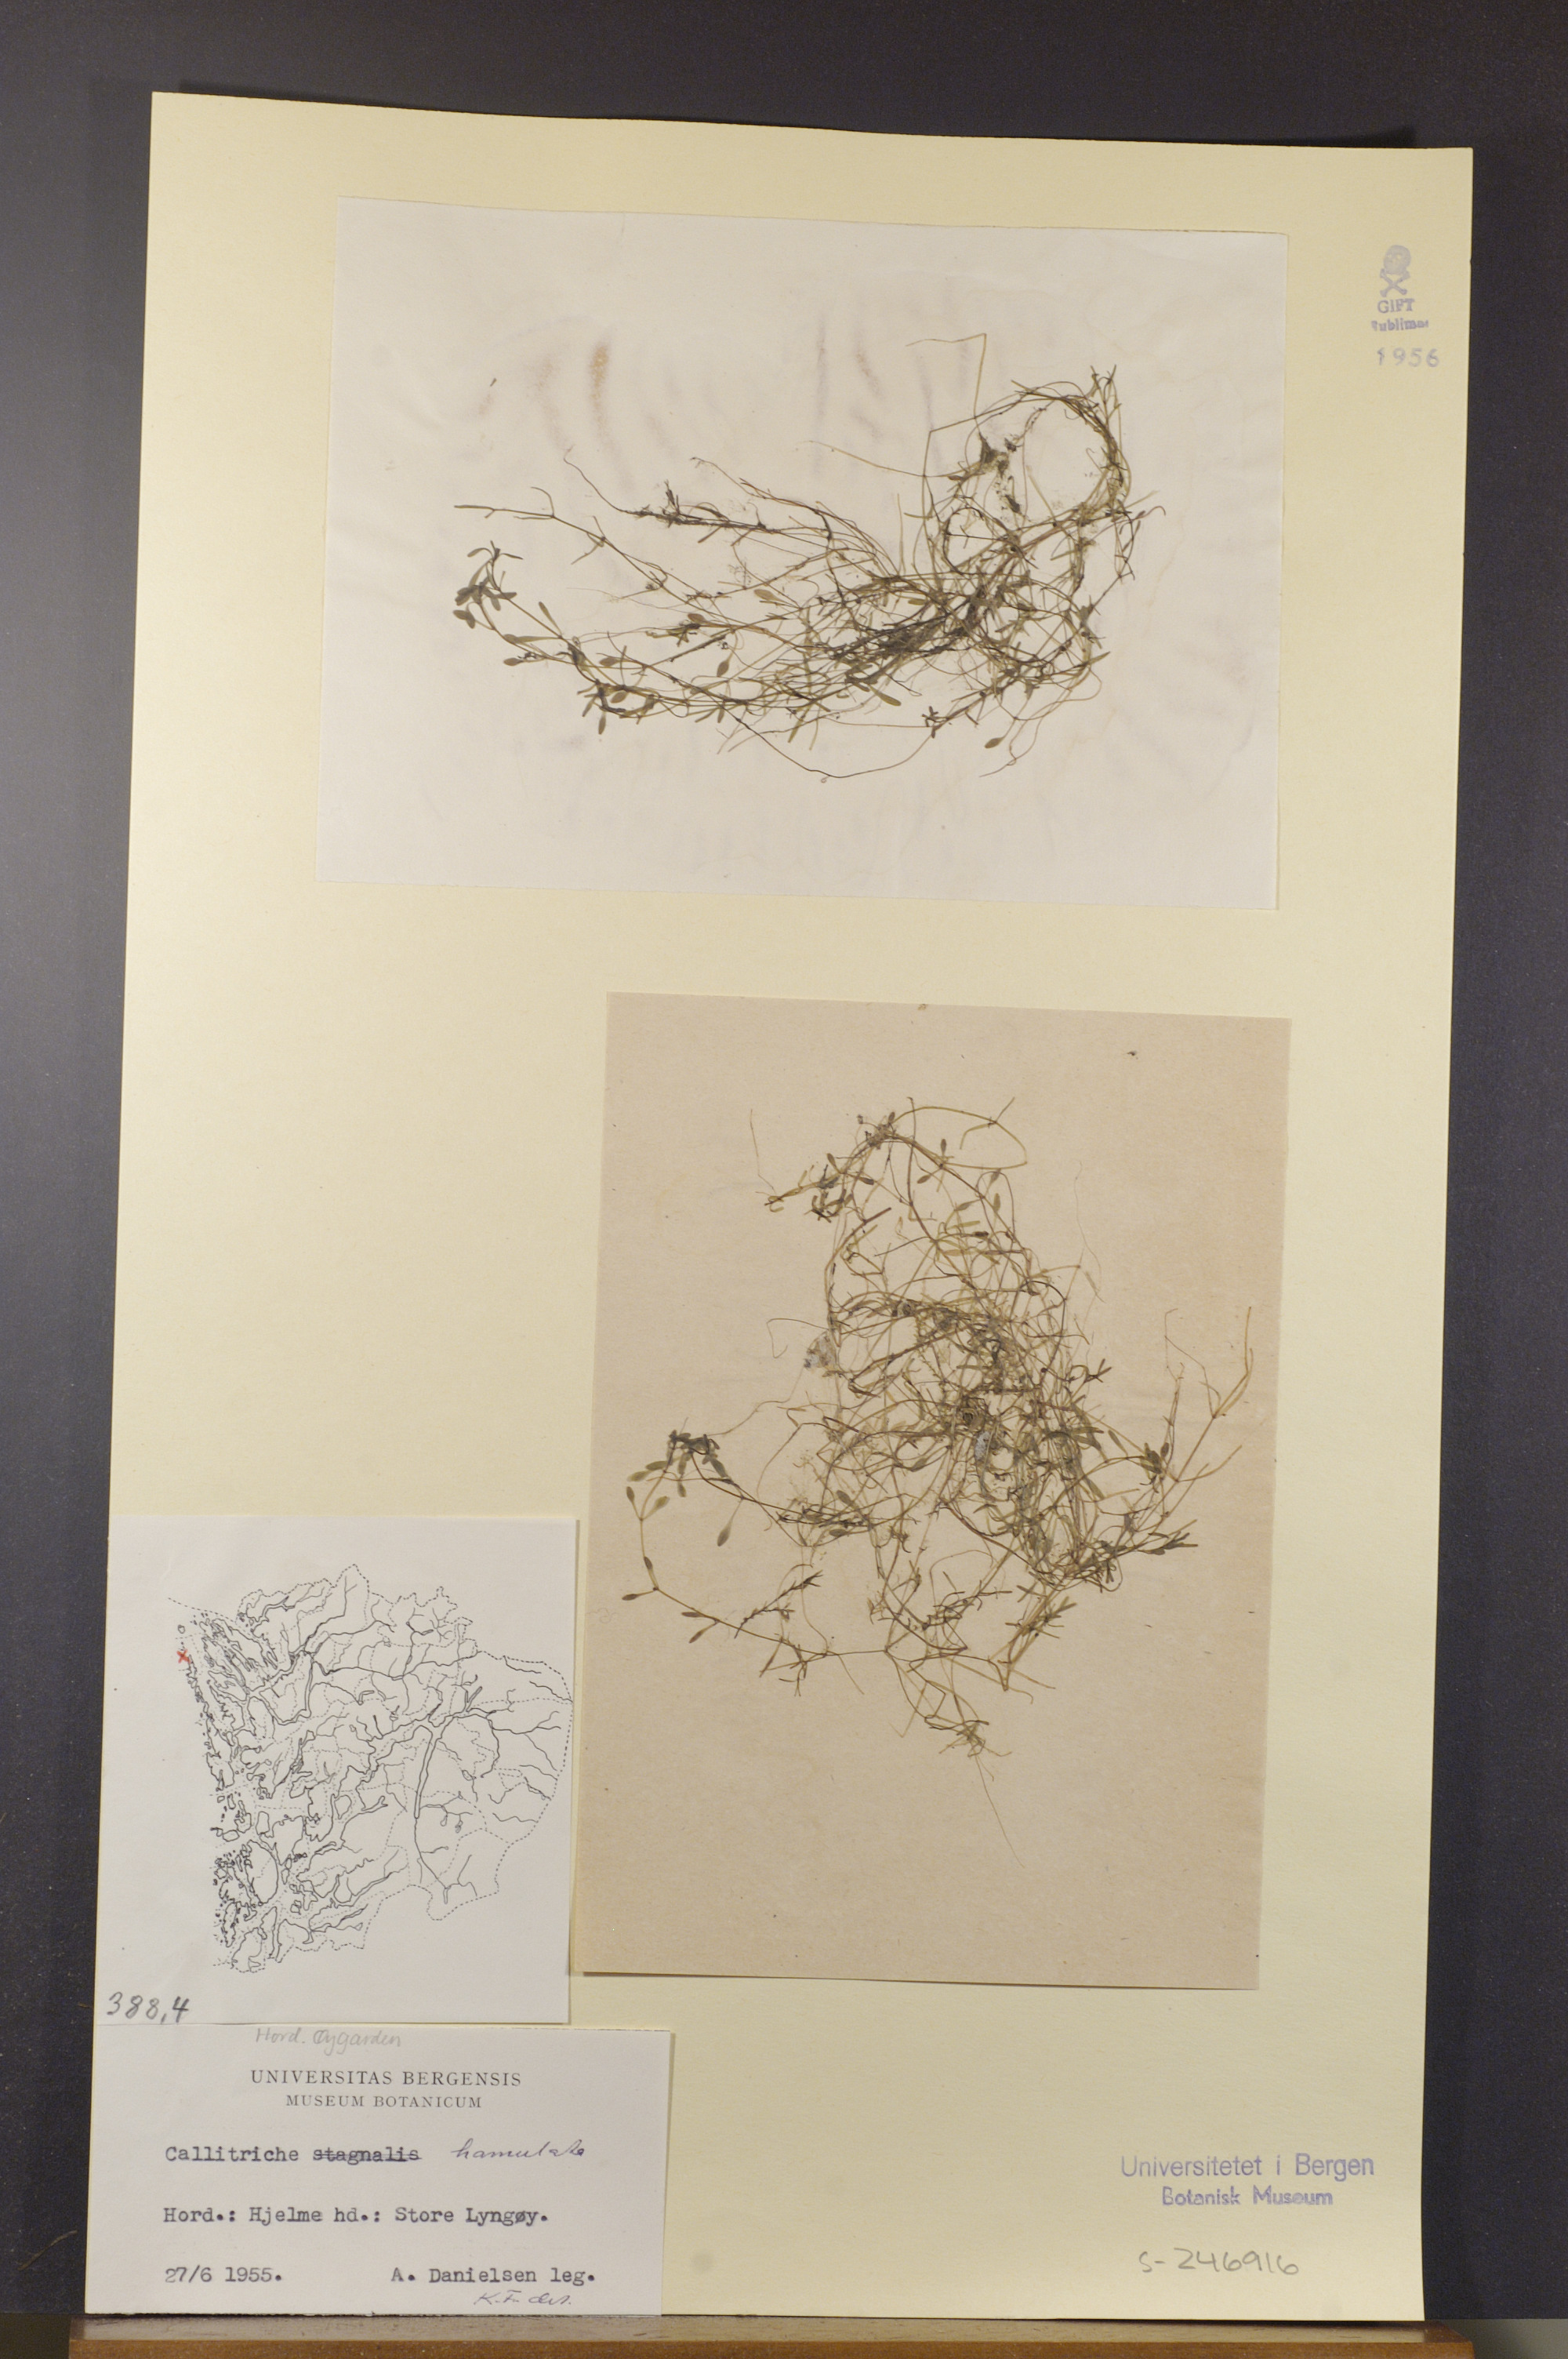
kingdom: Plantae
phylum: Tracheophyta
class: Magnoliopsida
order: Lamiales
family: Plantaginaceae
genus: Callitriche
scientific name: Callitriche hamulata
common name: Intermediate water-starwort
